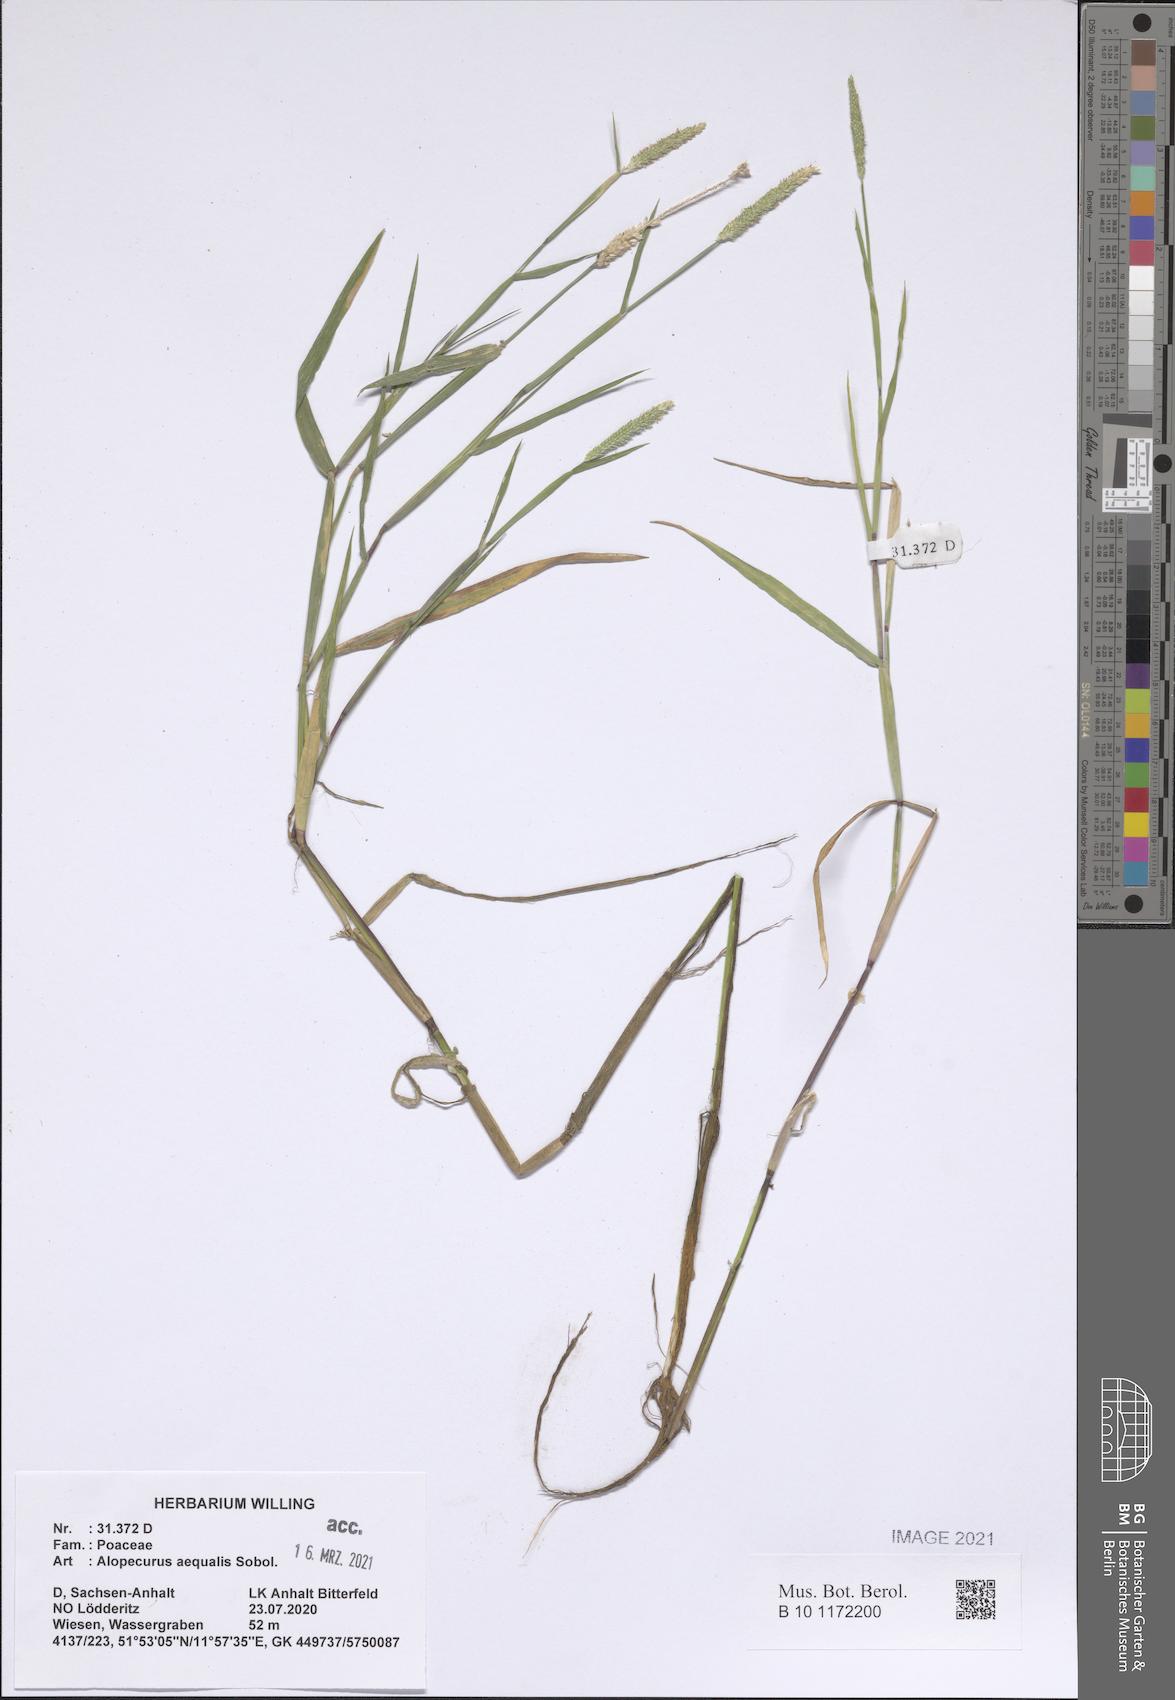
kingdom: Plantae
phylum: Tracheophyta
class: Liliopsida
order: Poales
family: Poaceae
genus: Alopecurus
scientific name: Alopecurus aequalis
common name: Orange foxtail
